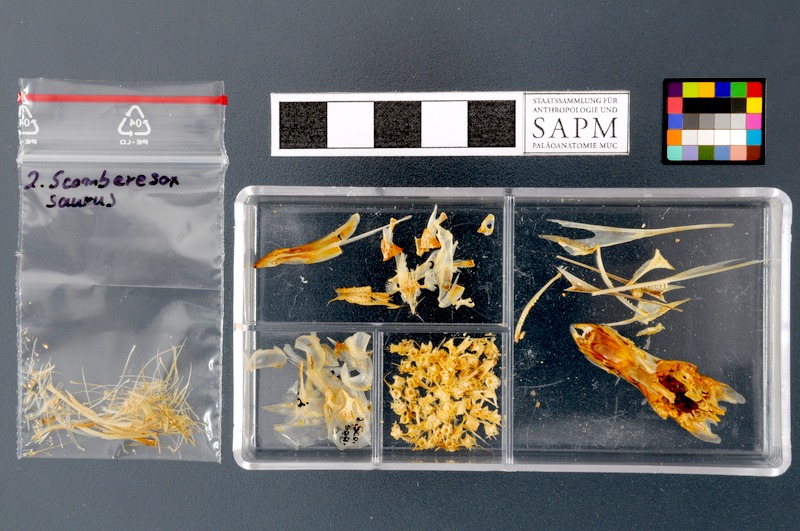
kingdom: Animalia
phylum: Chordata
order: Beloniformes
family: Scomberesocidae
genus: Scomberesox
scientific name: Scomberesox saurus
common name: Skipper
